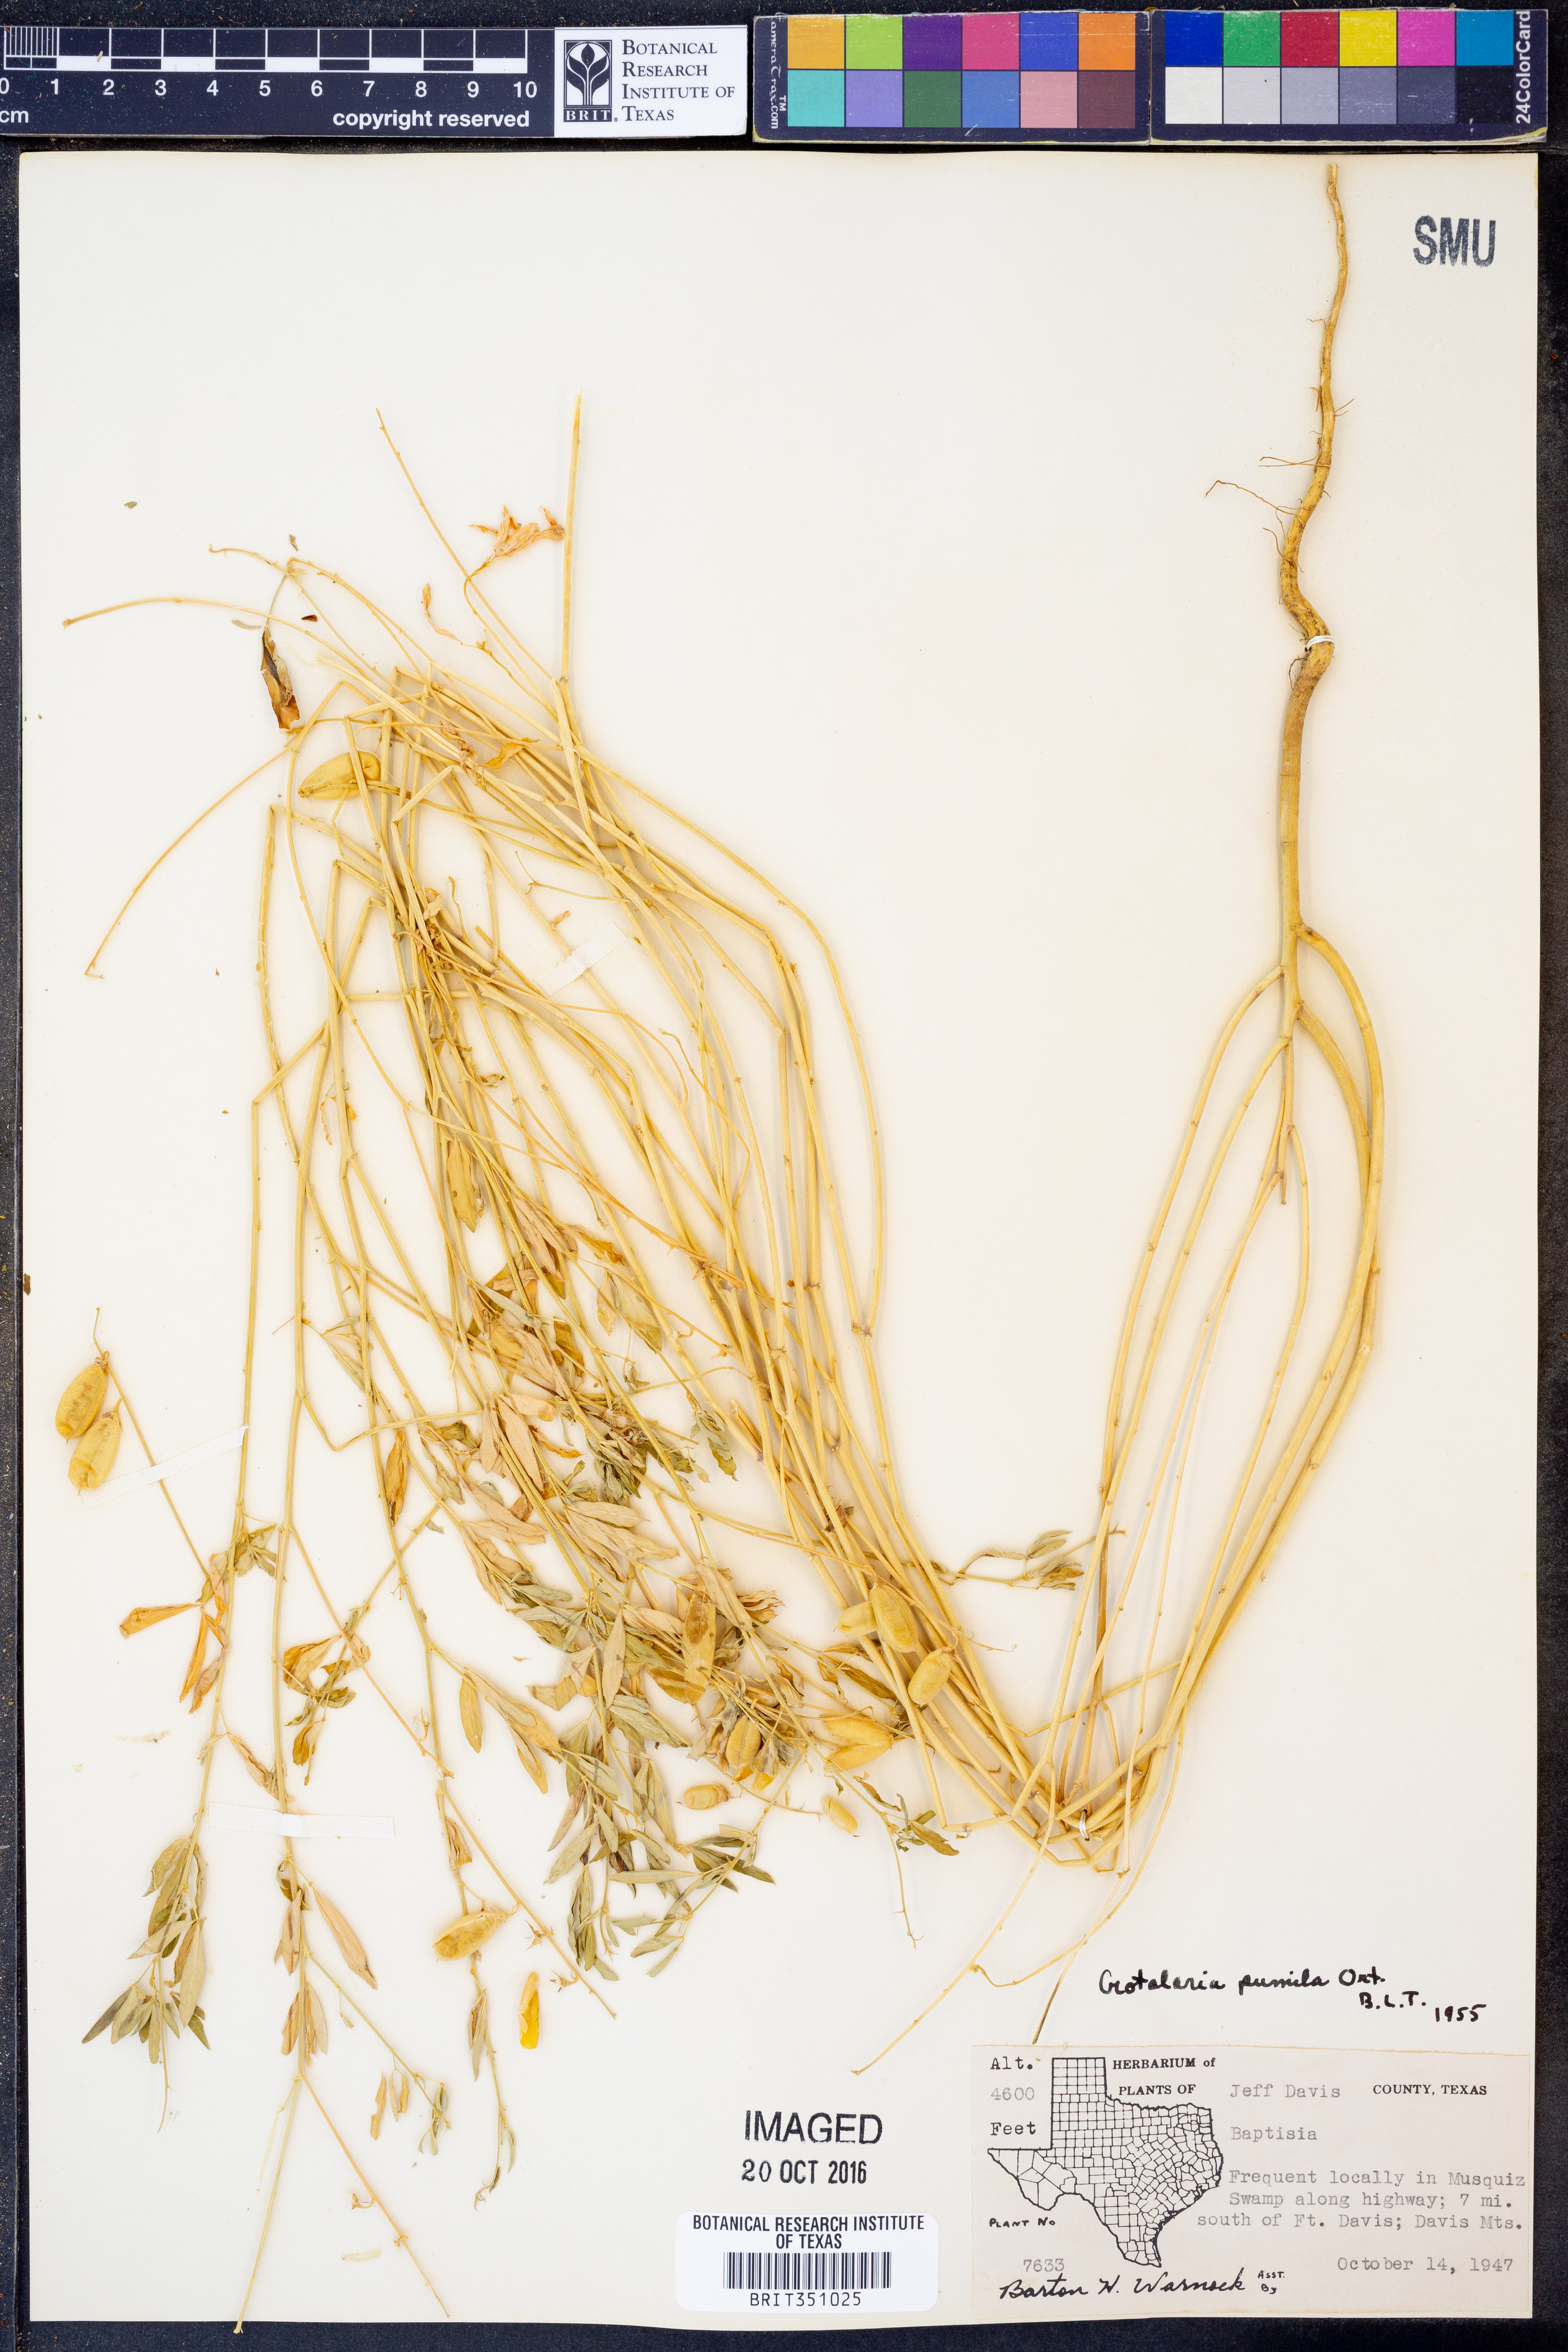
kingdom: Plantae
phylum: Tracheophyta
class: Magnoliopsida
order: Fabales
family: Fabaceae
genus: Crotalaria
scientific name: Crotalaria pumila
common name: Low rattlebox
